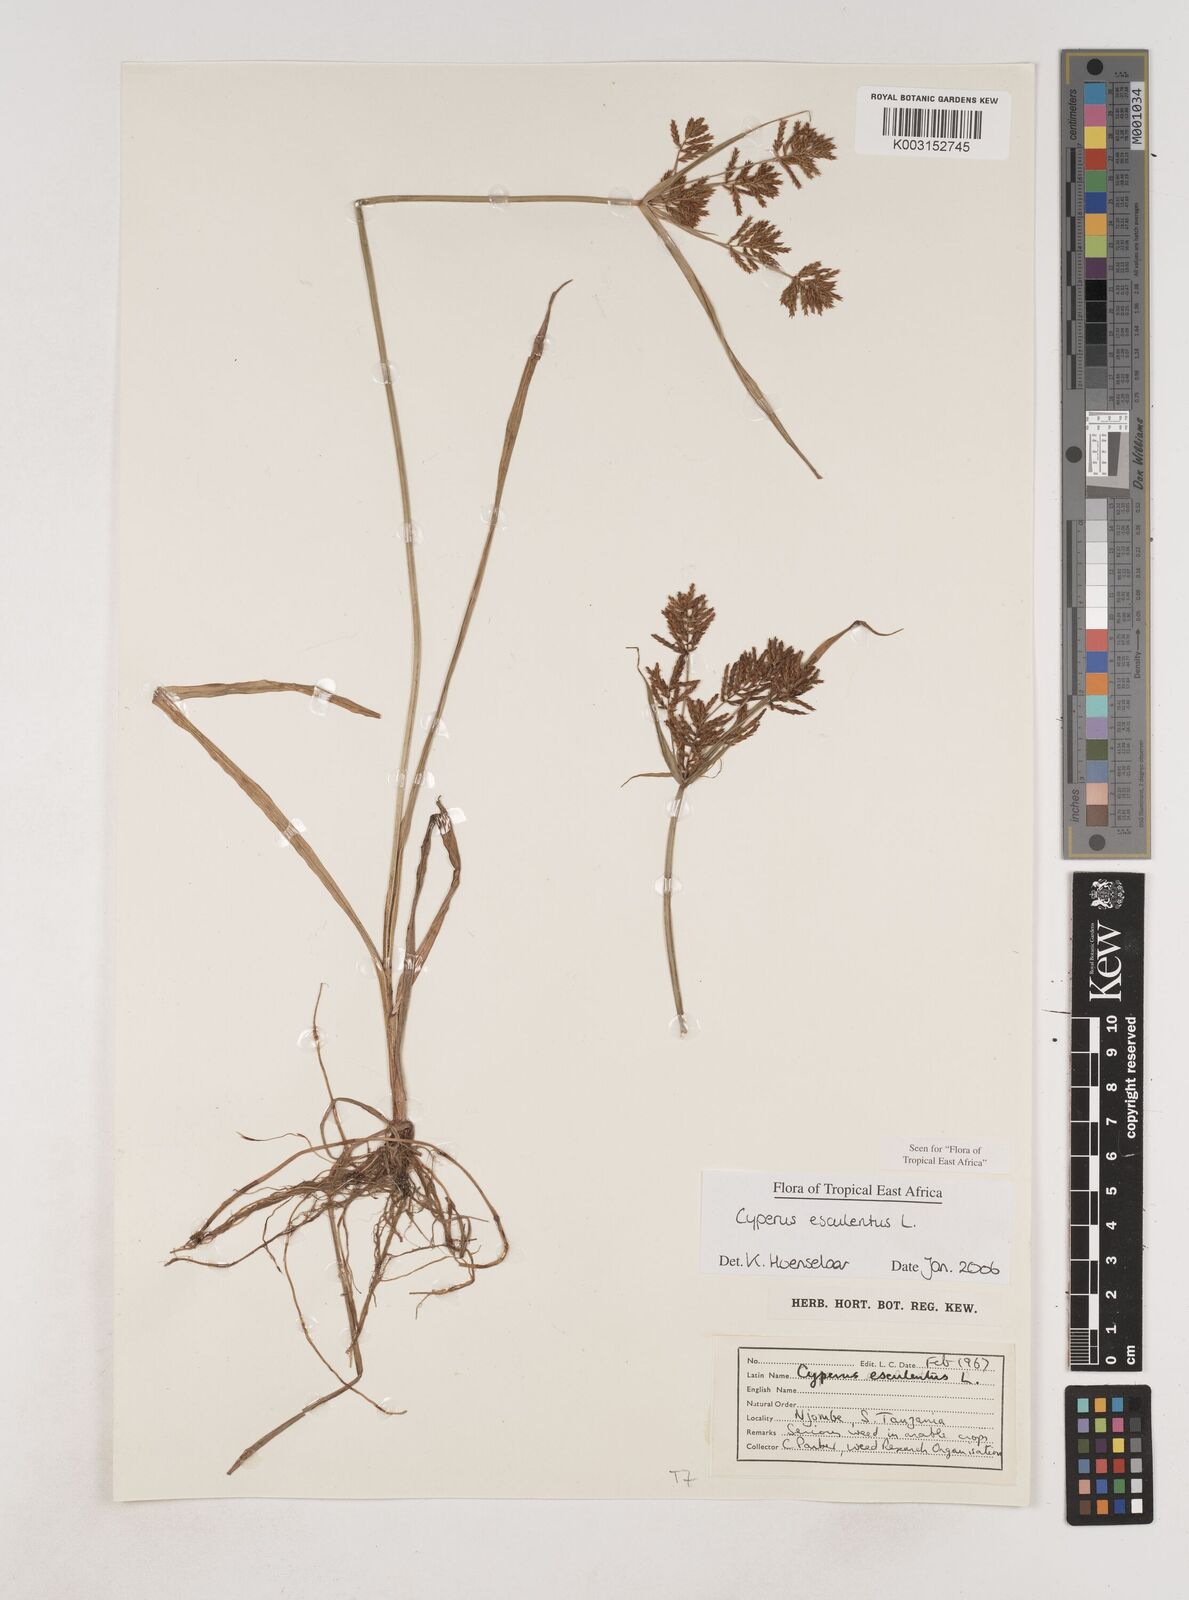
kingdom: Plantae
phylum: Tracheophyta
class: Liliopsida
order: Poales
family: Cyperaceae
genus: Cyperus
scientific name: Cyperus esculentus
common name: Yellow nutsedge
